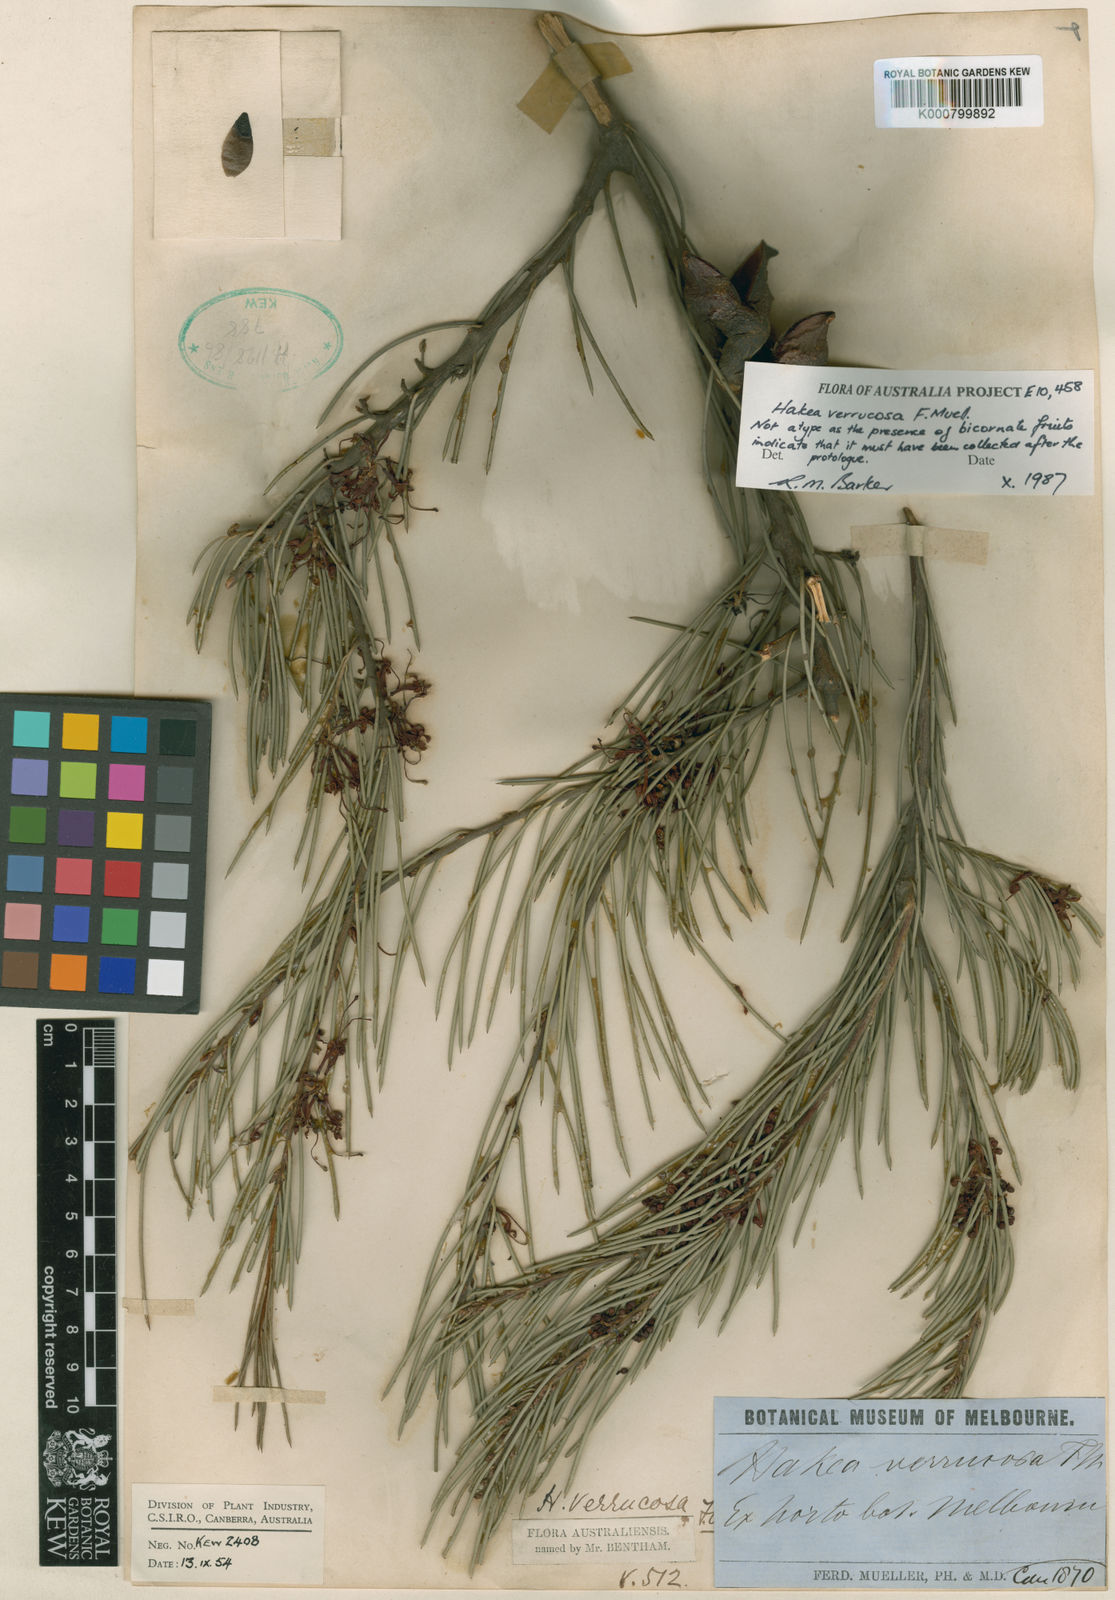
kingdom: Plantae
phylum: Tracheophyta
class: Magnoliopsida
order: Proteales
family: Proteaceae
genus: Hakea
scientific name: Hakea verrucosa
